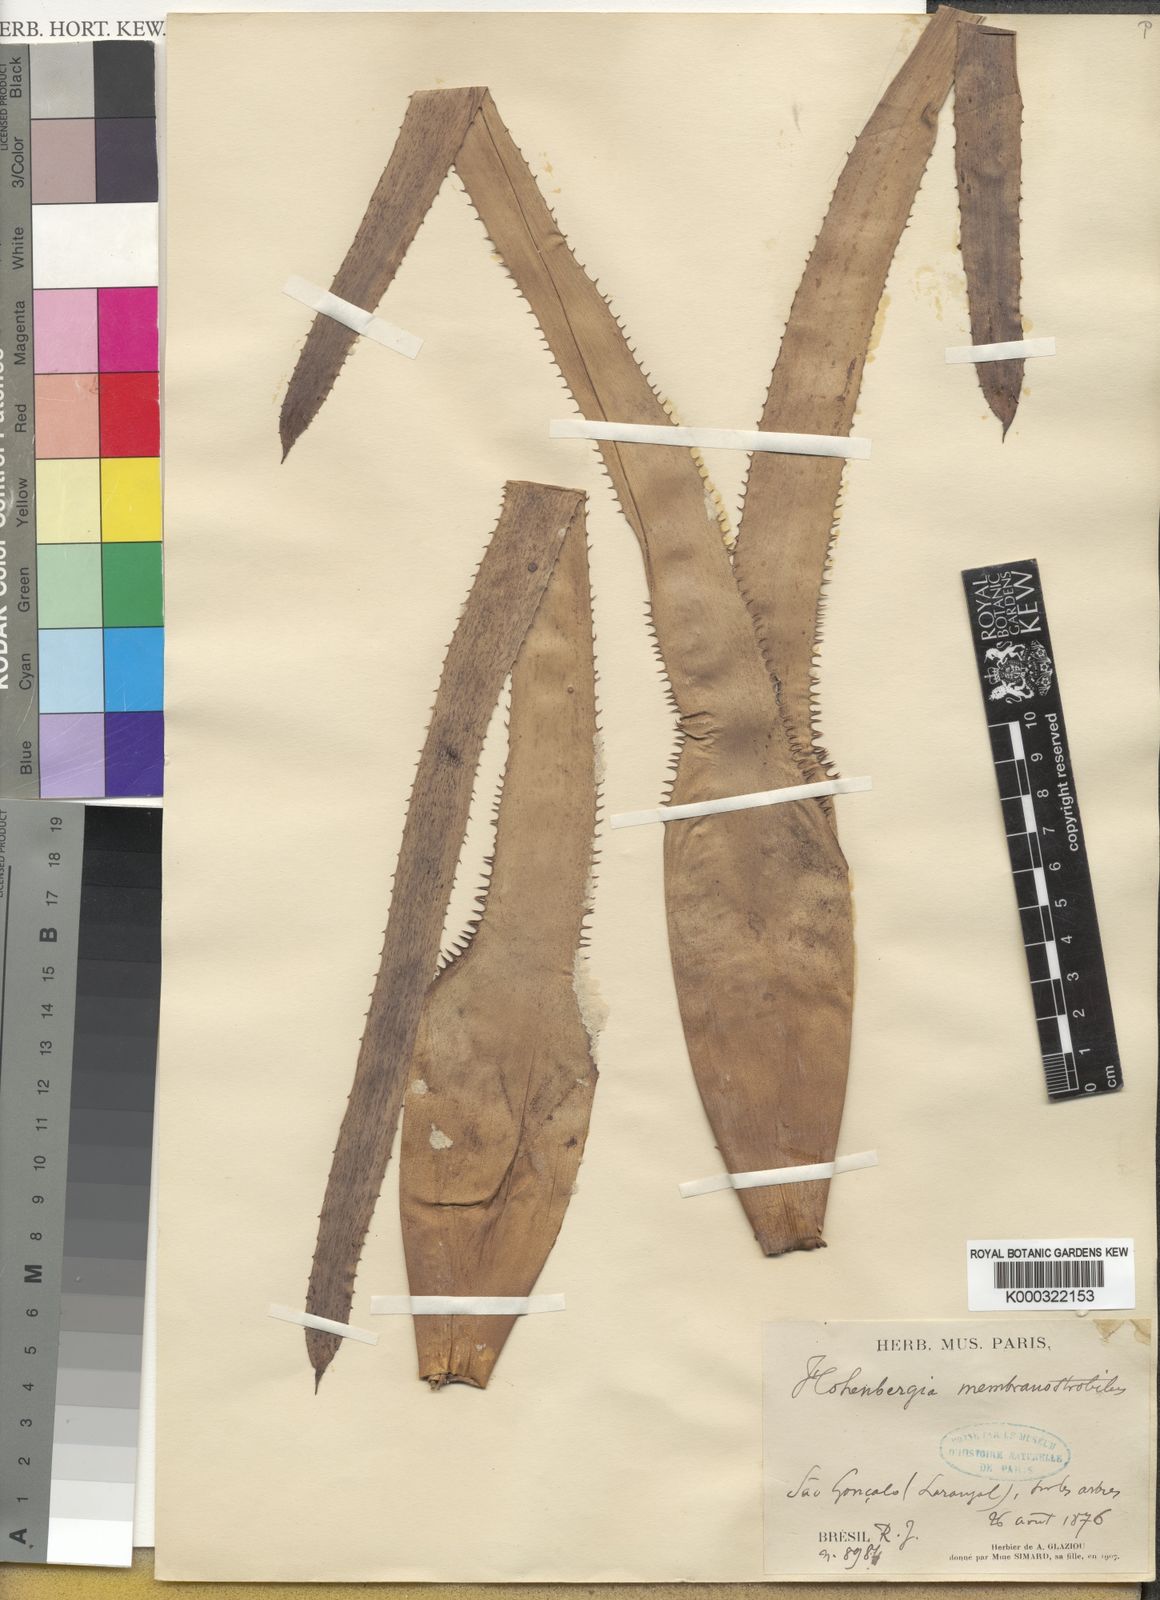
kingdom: Plantae
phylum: Tracheophyta
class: Liliopsida
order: Poales
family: Bromeliaceae
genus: Hohenbergia
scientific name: Hohenbergia membranostrobilus
